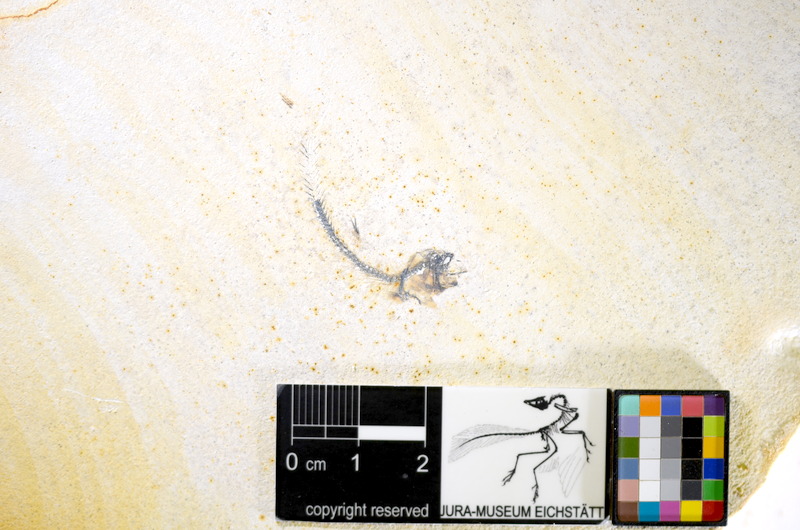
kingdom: Animalia
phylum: Chordata
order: Salmoniformes
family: Orthogonikleithridae
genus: Orthogonikleithrus
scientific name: Orthogonikleithrus hoelli
